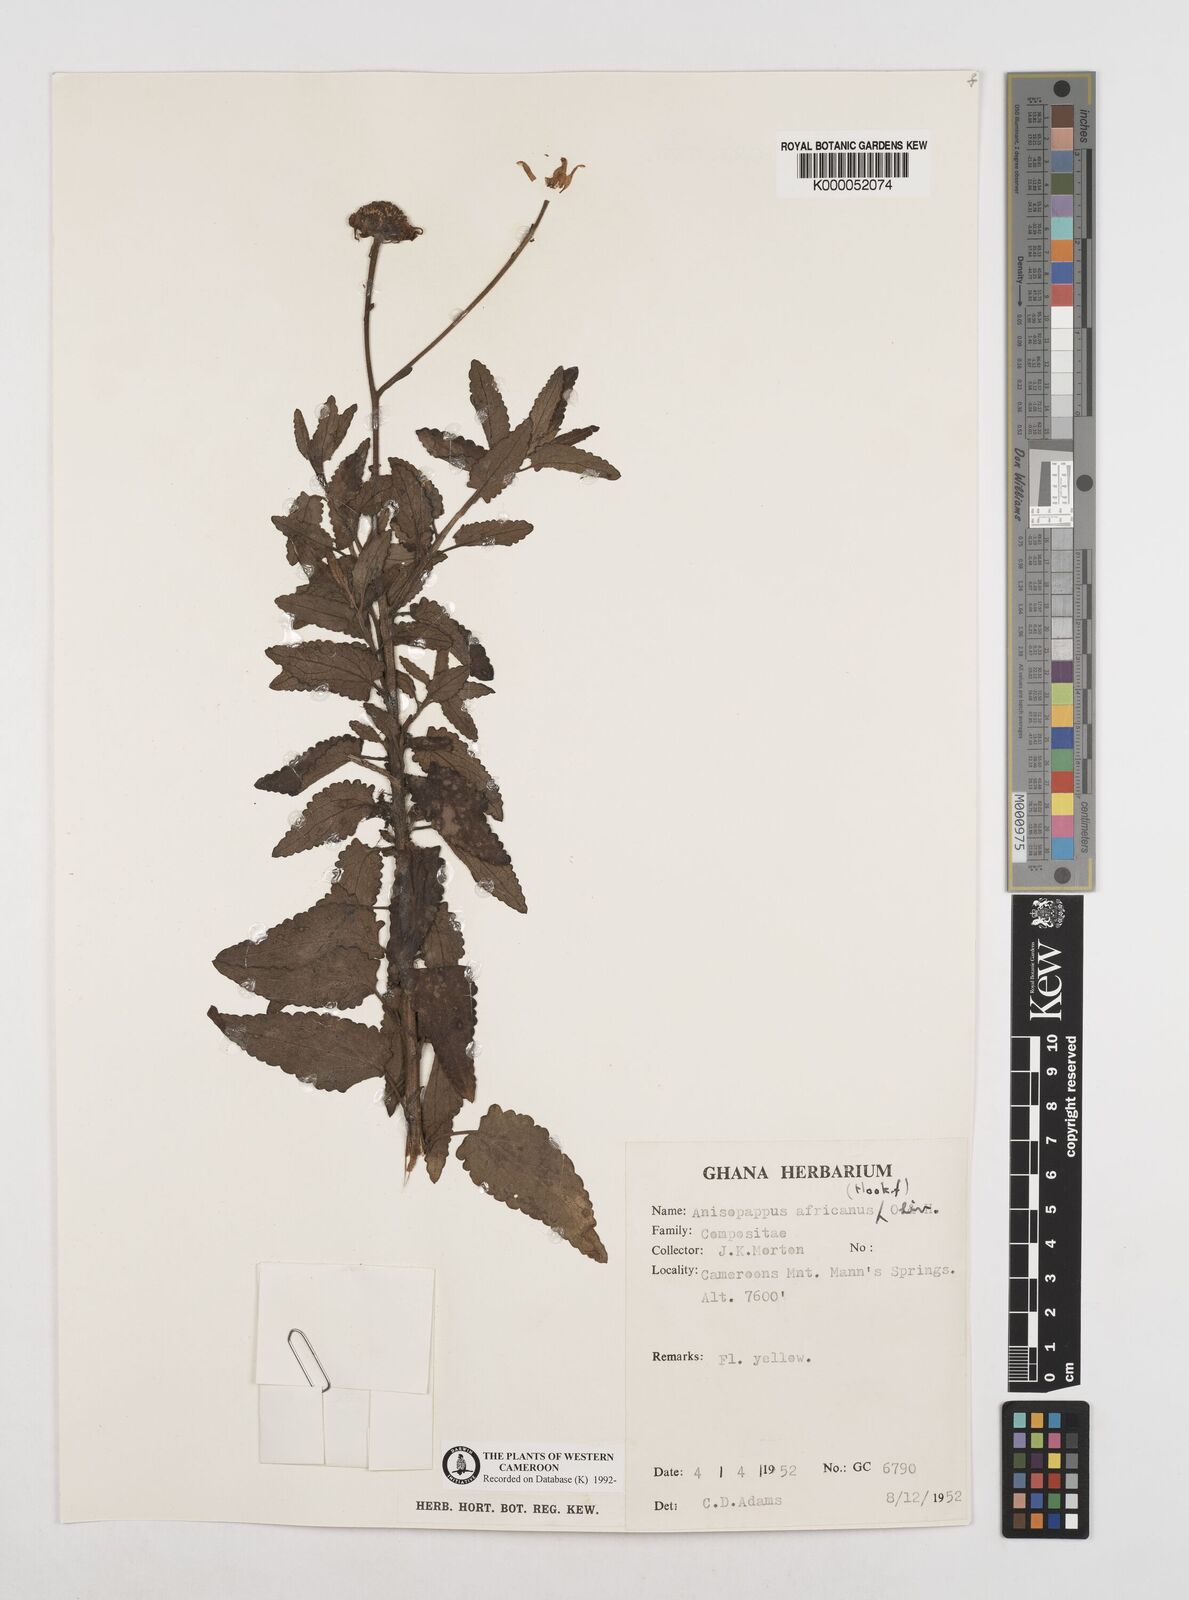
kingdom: Plantae
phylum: Tracheophyta
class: Magnoliopsida
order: Asterales
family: Asteraceae
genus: Anisopappus
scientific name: Anisopappus chinensis
